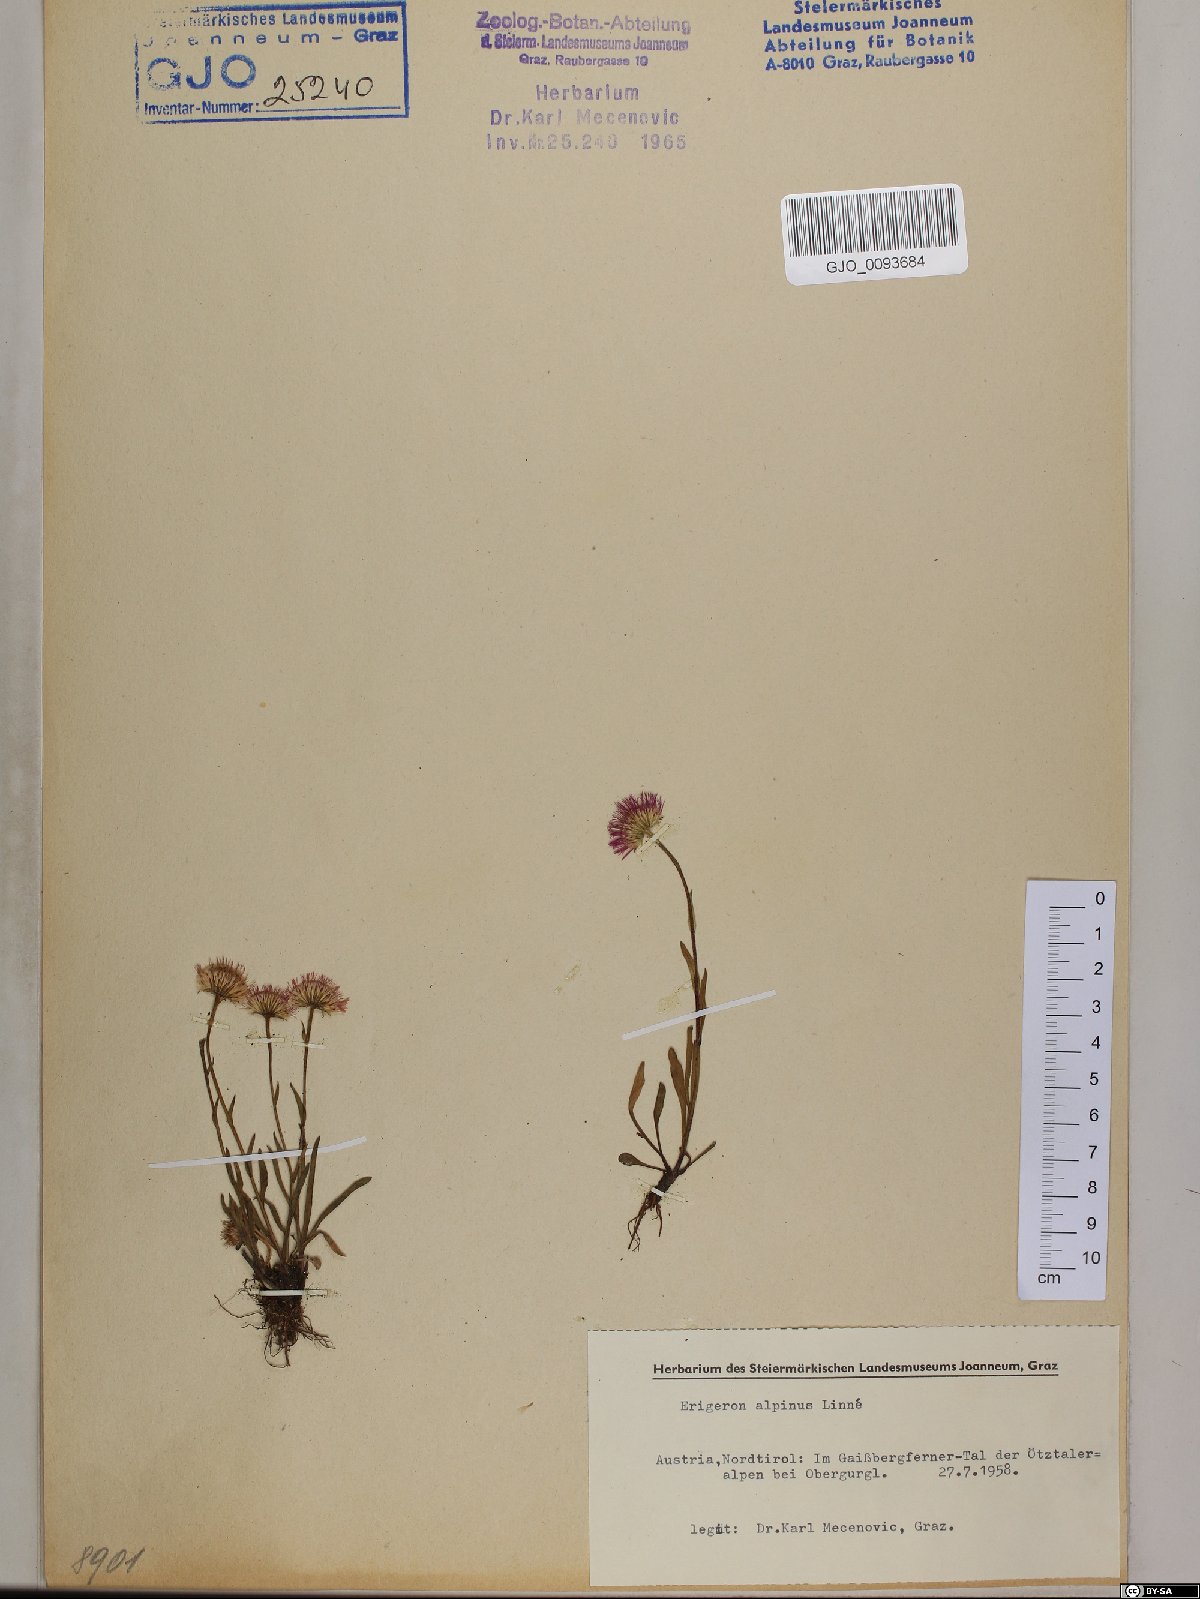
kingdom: Plantae
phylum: Tracheophyta
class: Magnoliopsida
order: Asterales
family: Asteraceae
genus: Erigeron
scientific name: Erigeron alpinus
